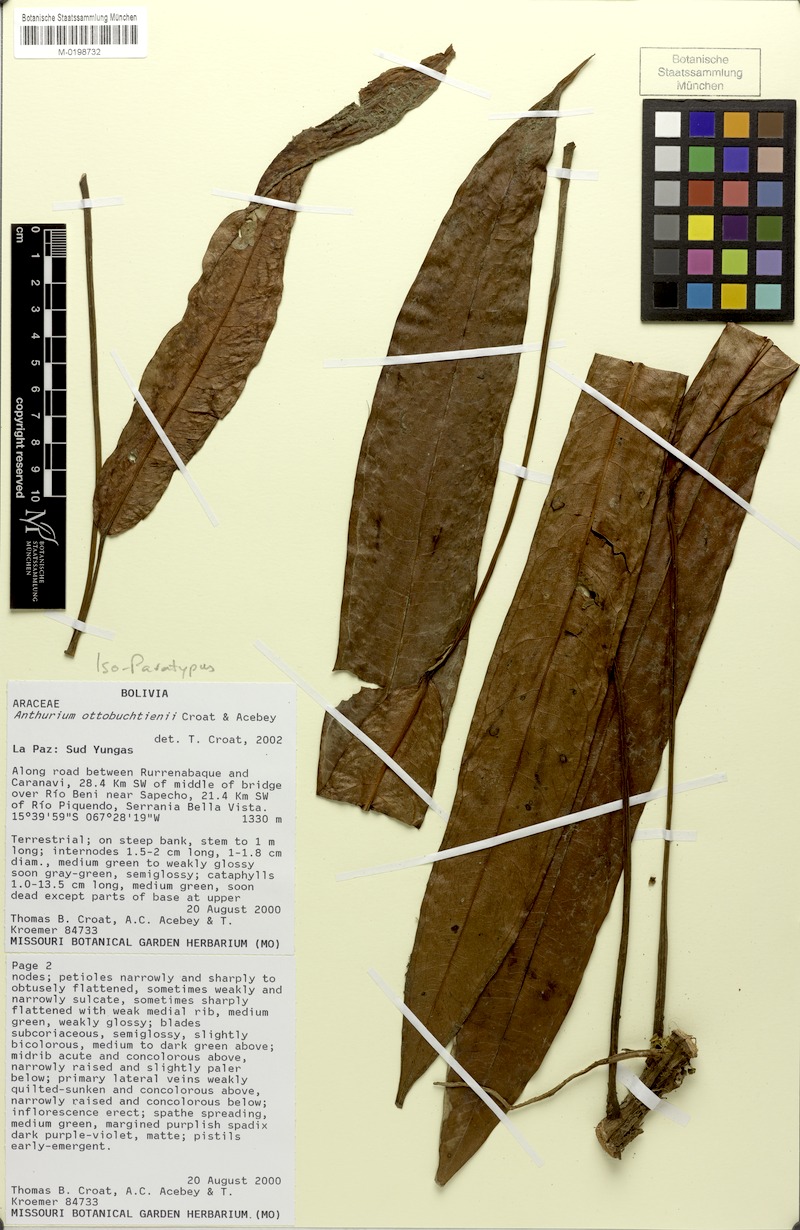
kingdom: Plantae
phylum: Tracheophyta
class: Liliopsida
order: Alismatales
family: Araceae
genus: Anthurium
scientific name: Anthurium ottobuchtienii
